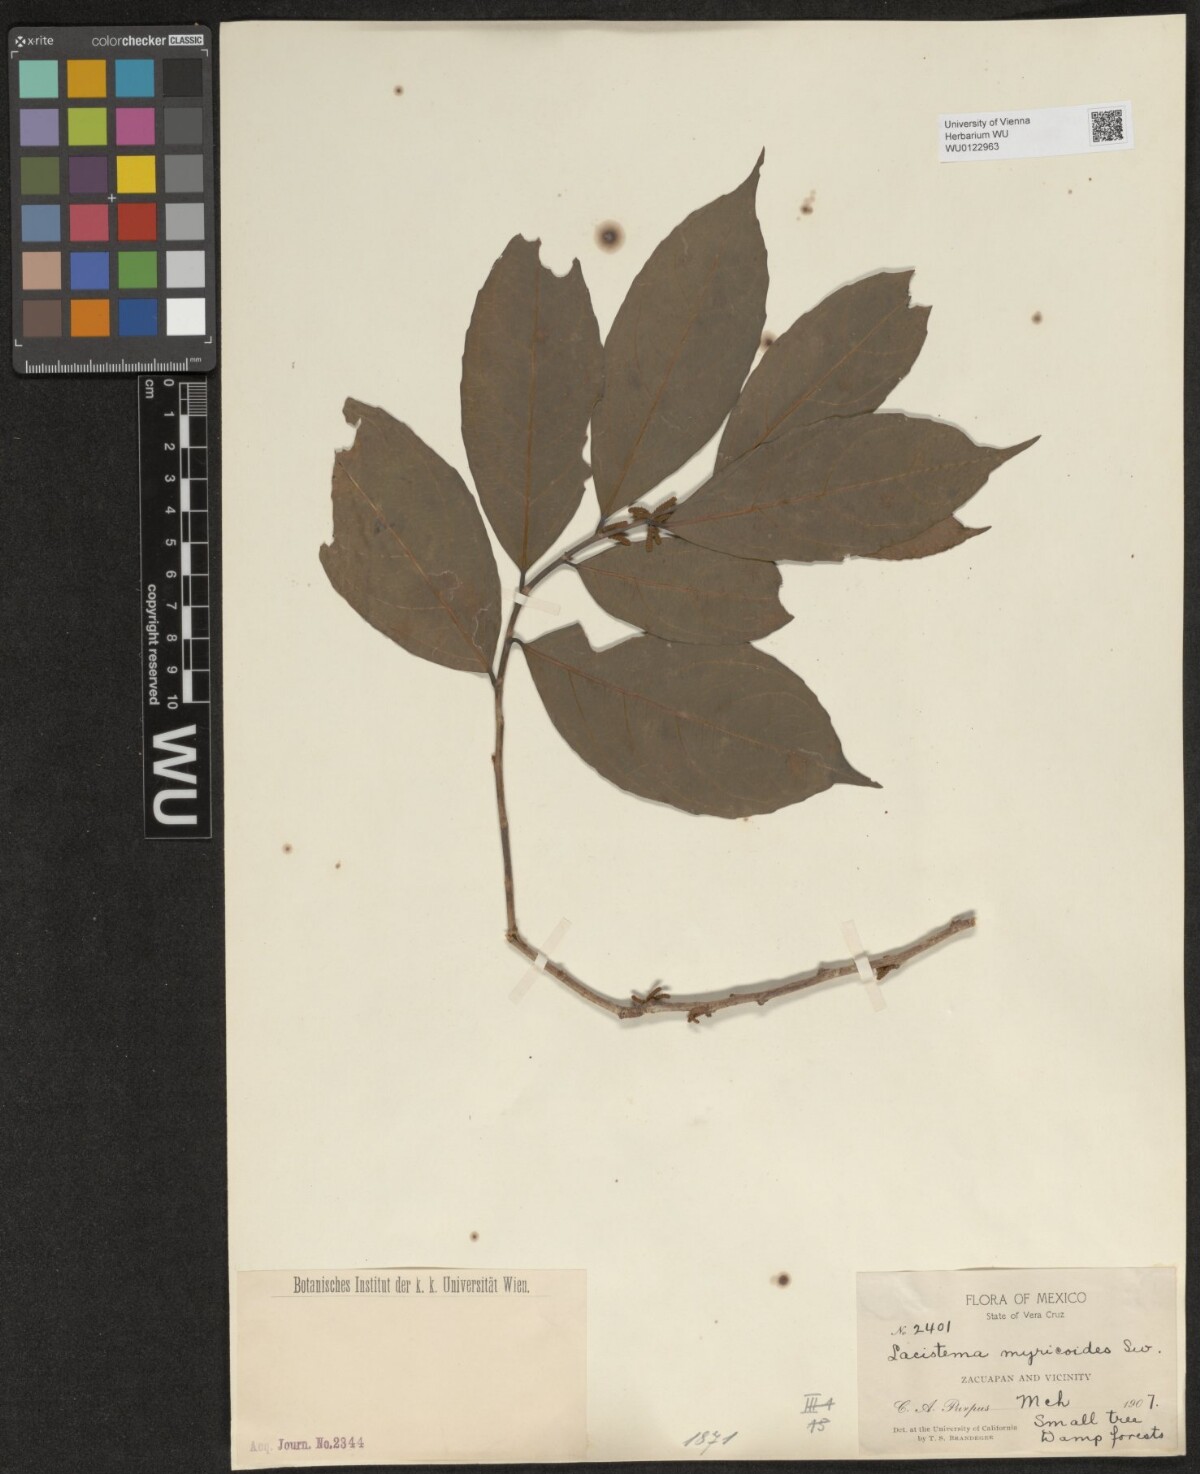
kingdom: Plantae
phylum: Tracheophyta
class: Magnoliopsida
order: Malpighiales
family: Lacistemataceae
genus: Lacistema
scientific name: Lacistema aggregatum
